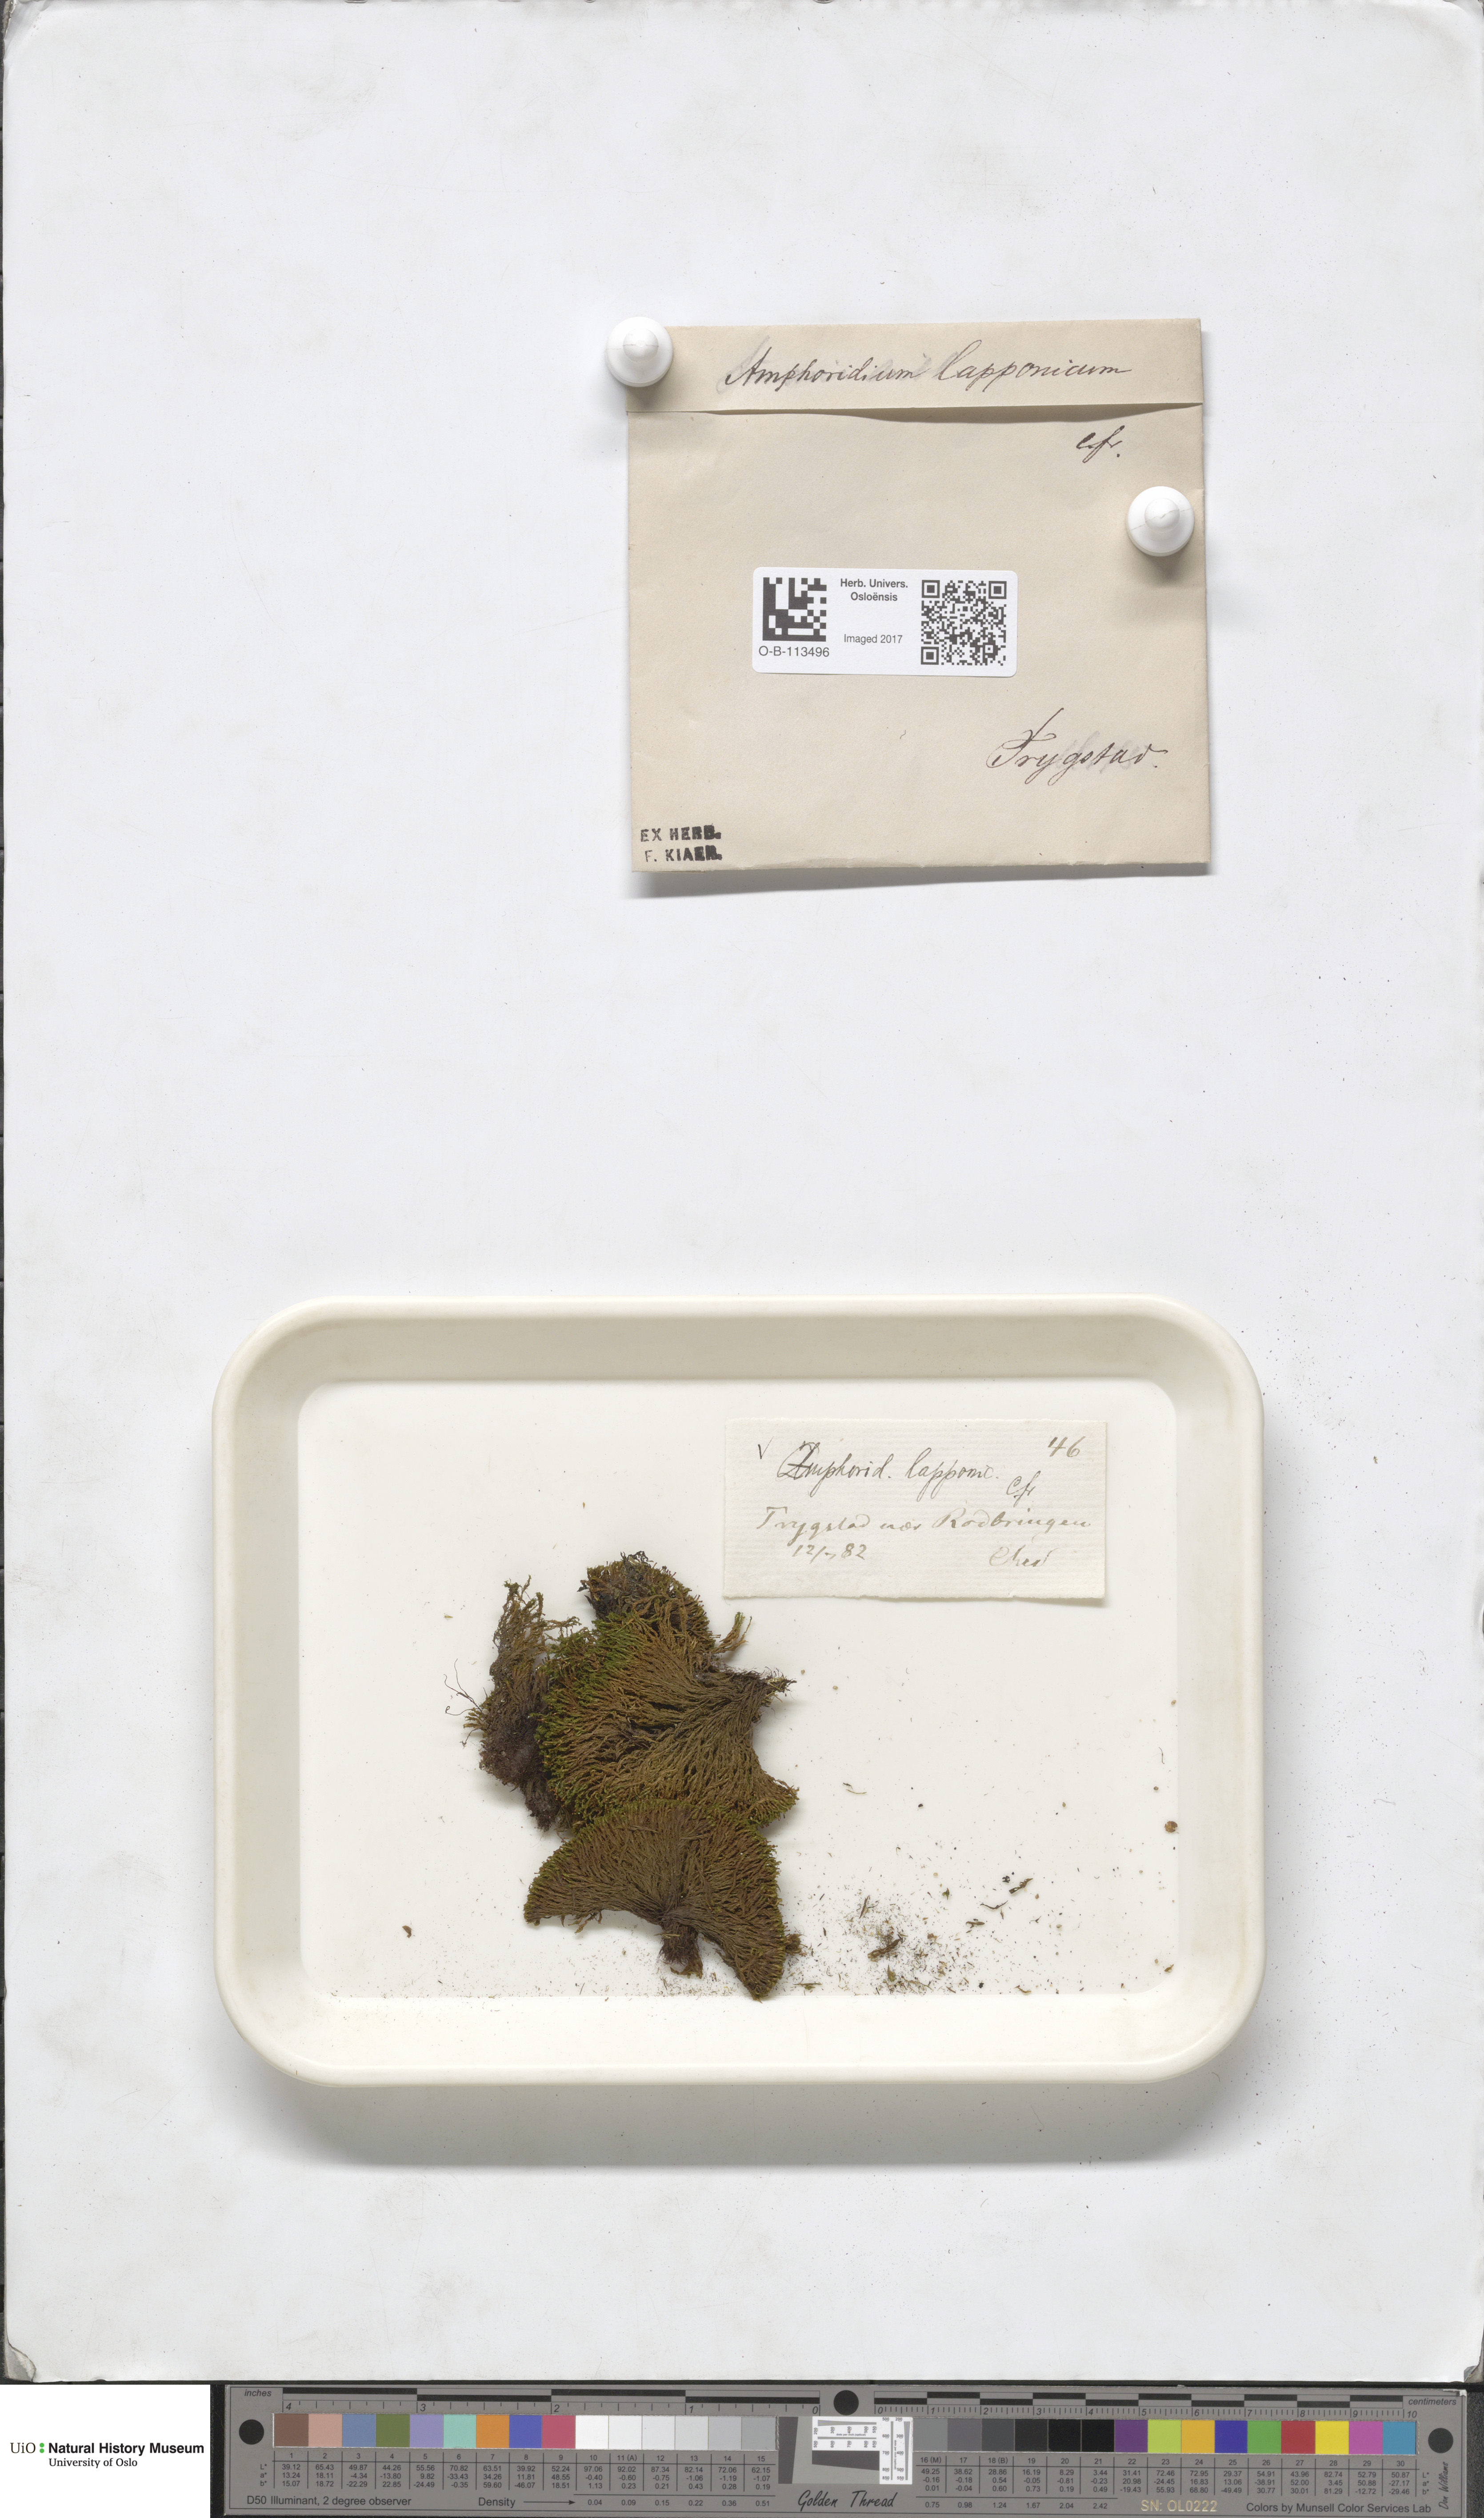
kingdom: Plantae
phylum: Bryophyta
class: Bryopsida
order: Dicranales
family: Amphidiaceae
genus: Amphidium
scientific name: Amphidium lapponicum
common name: Lapland yoke moss
